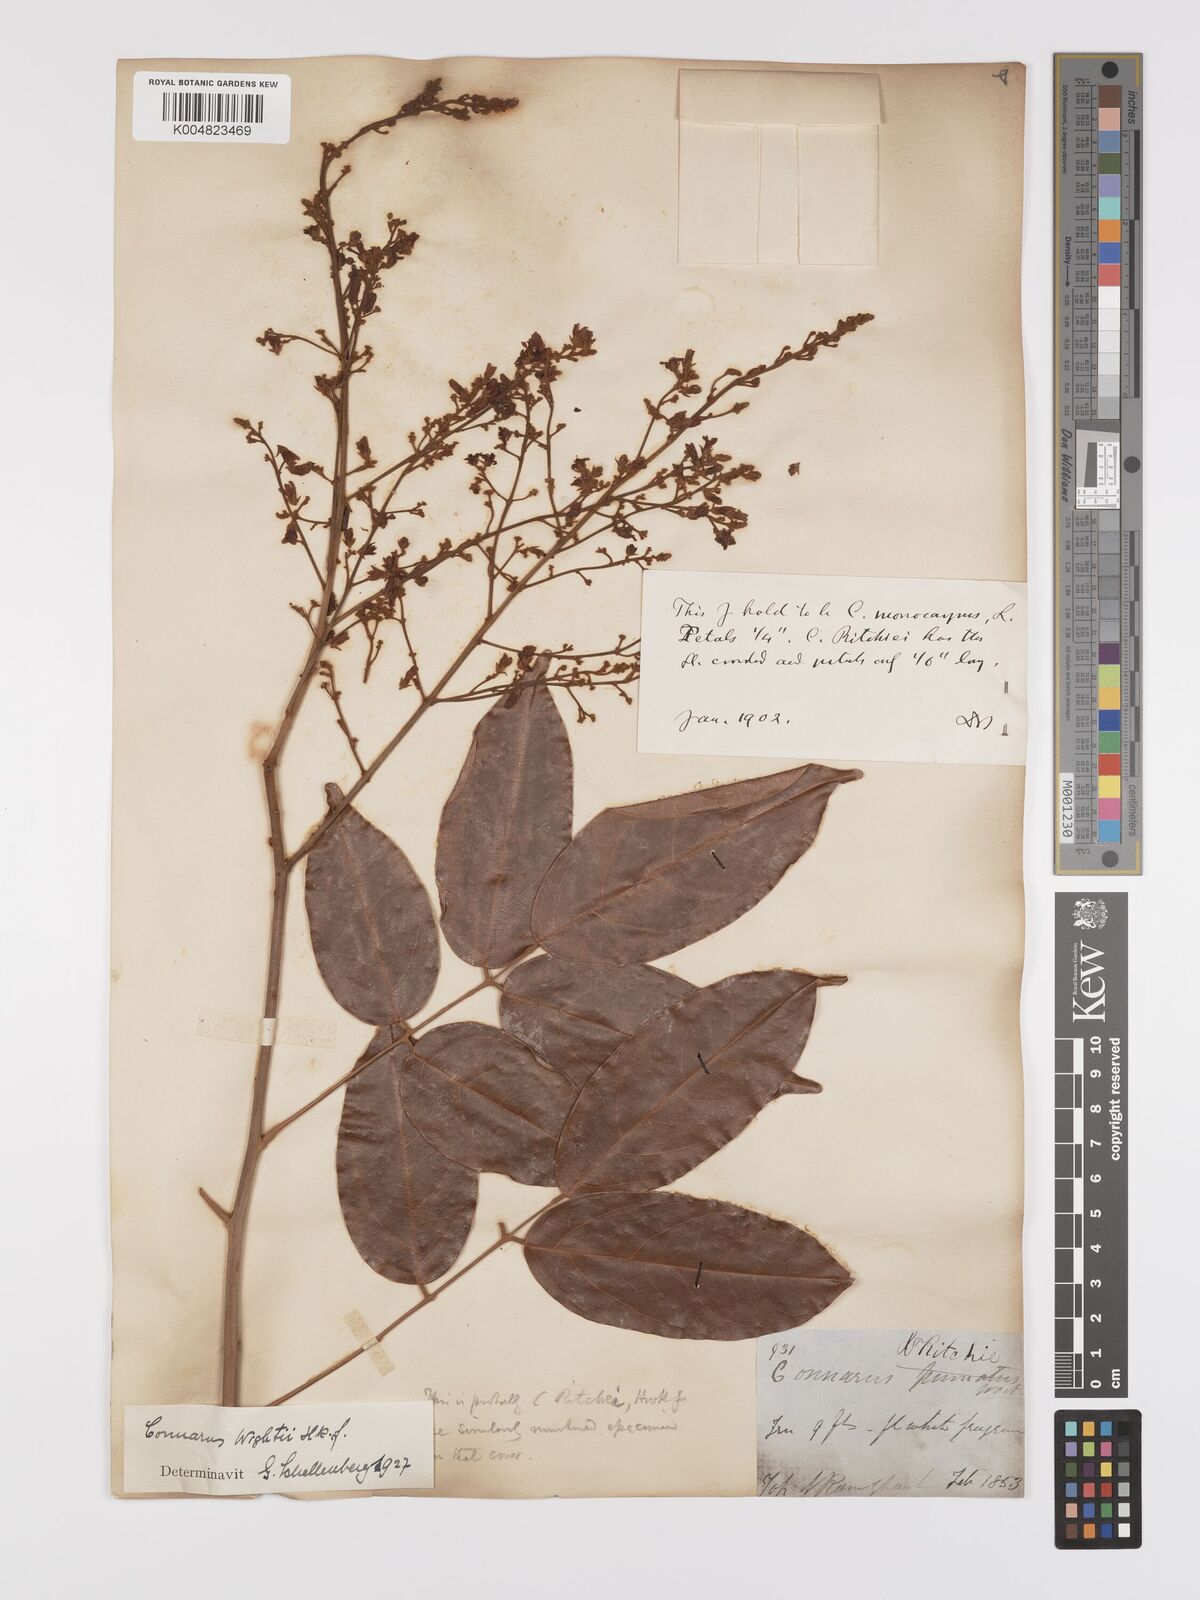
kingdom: Plantae
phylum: Tracheophyta
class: Magnoliopsida
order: Oxalidales
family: Connaraceae
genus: Connarus
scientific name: Connarus wightii
